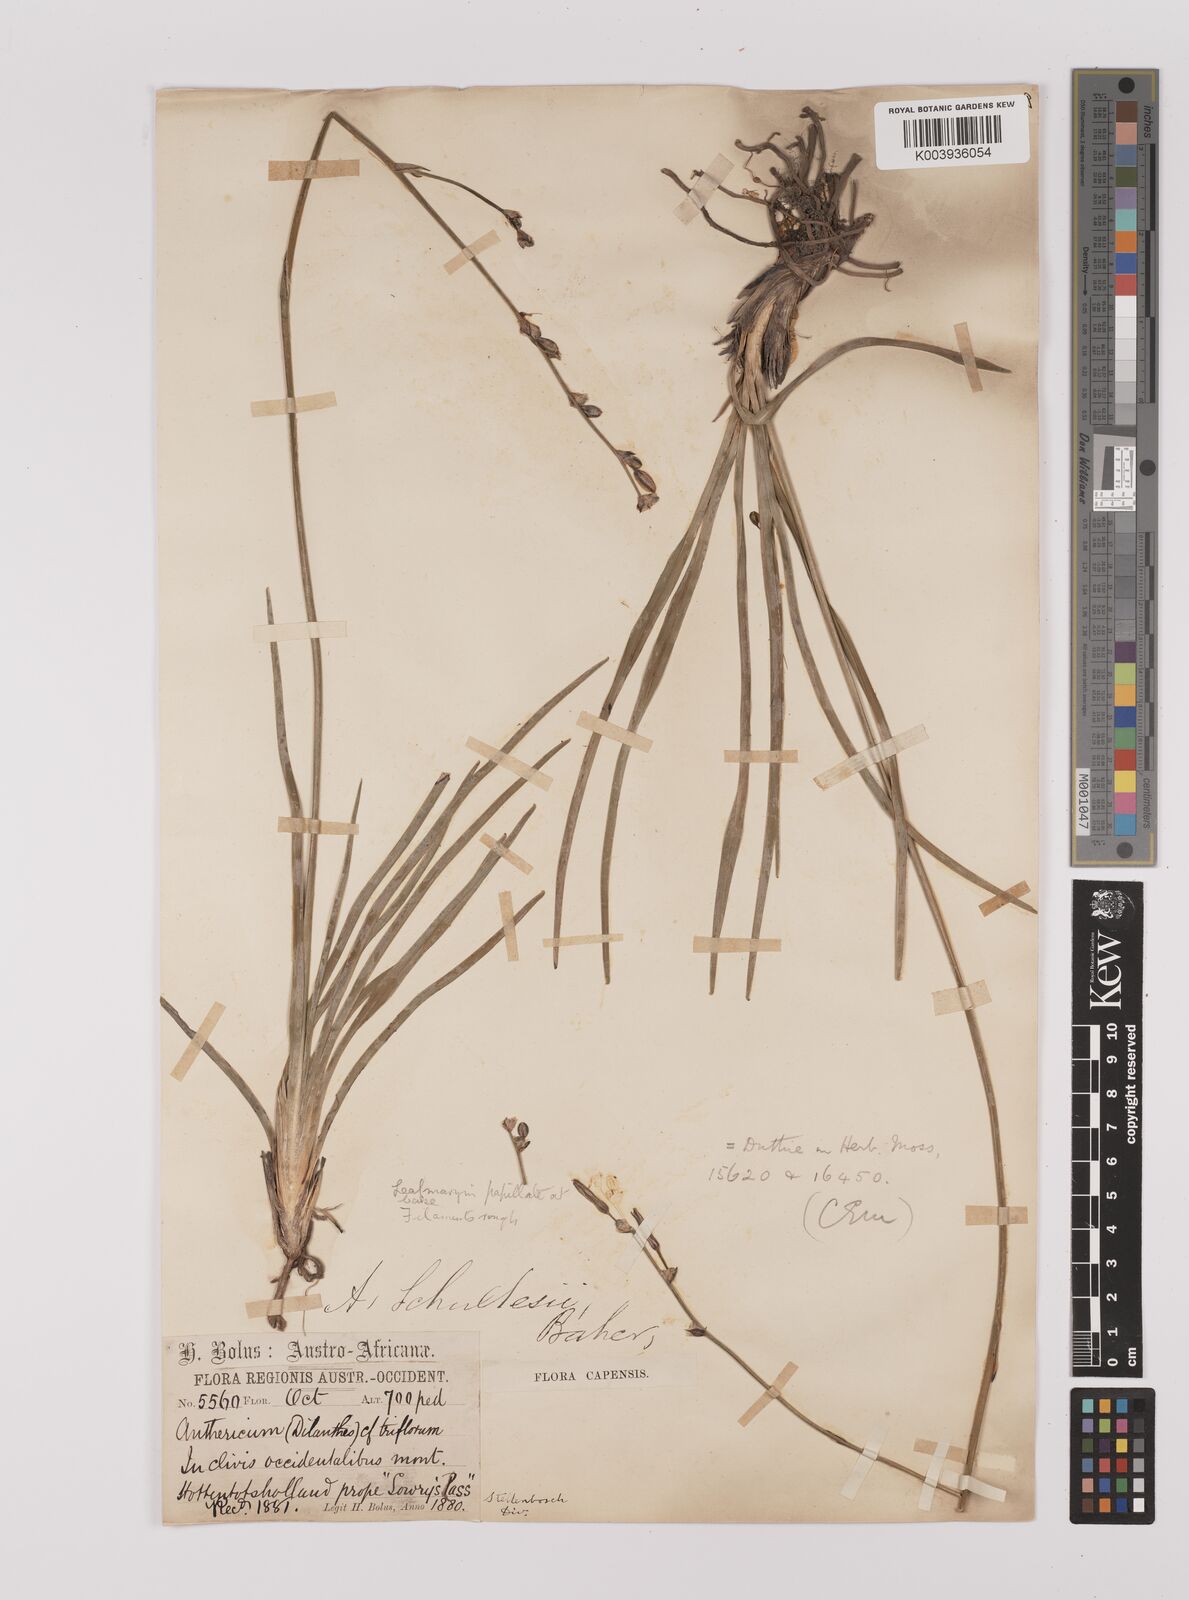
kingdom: Plantae
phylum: Tracheophyta
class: Liliopsida
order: Asparagales
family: Asparagaceae
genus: Chlorophytum
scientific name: Chlorophytum rigidum
